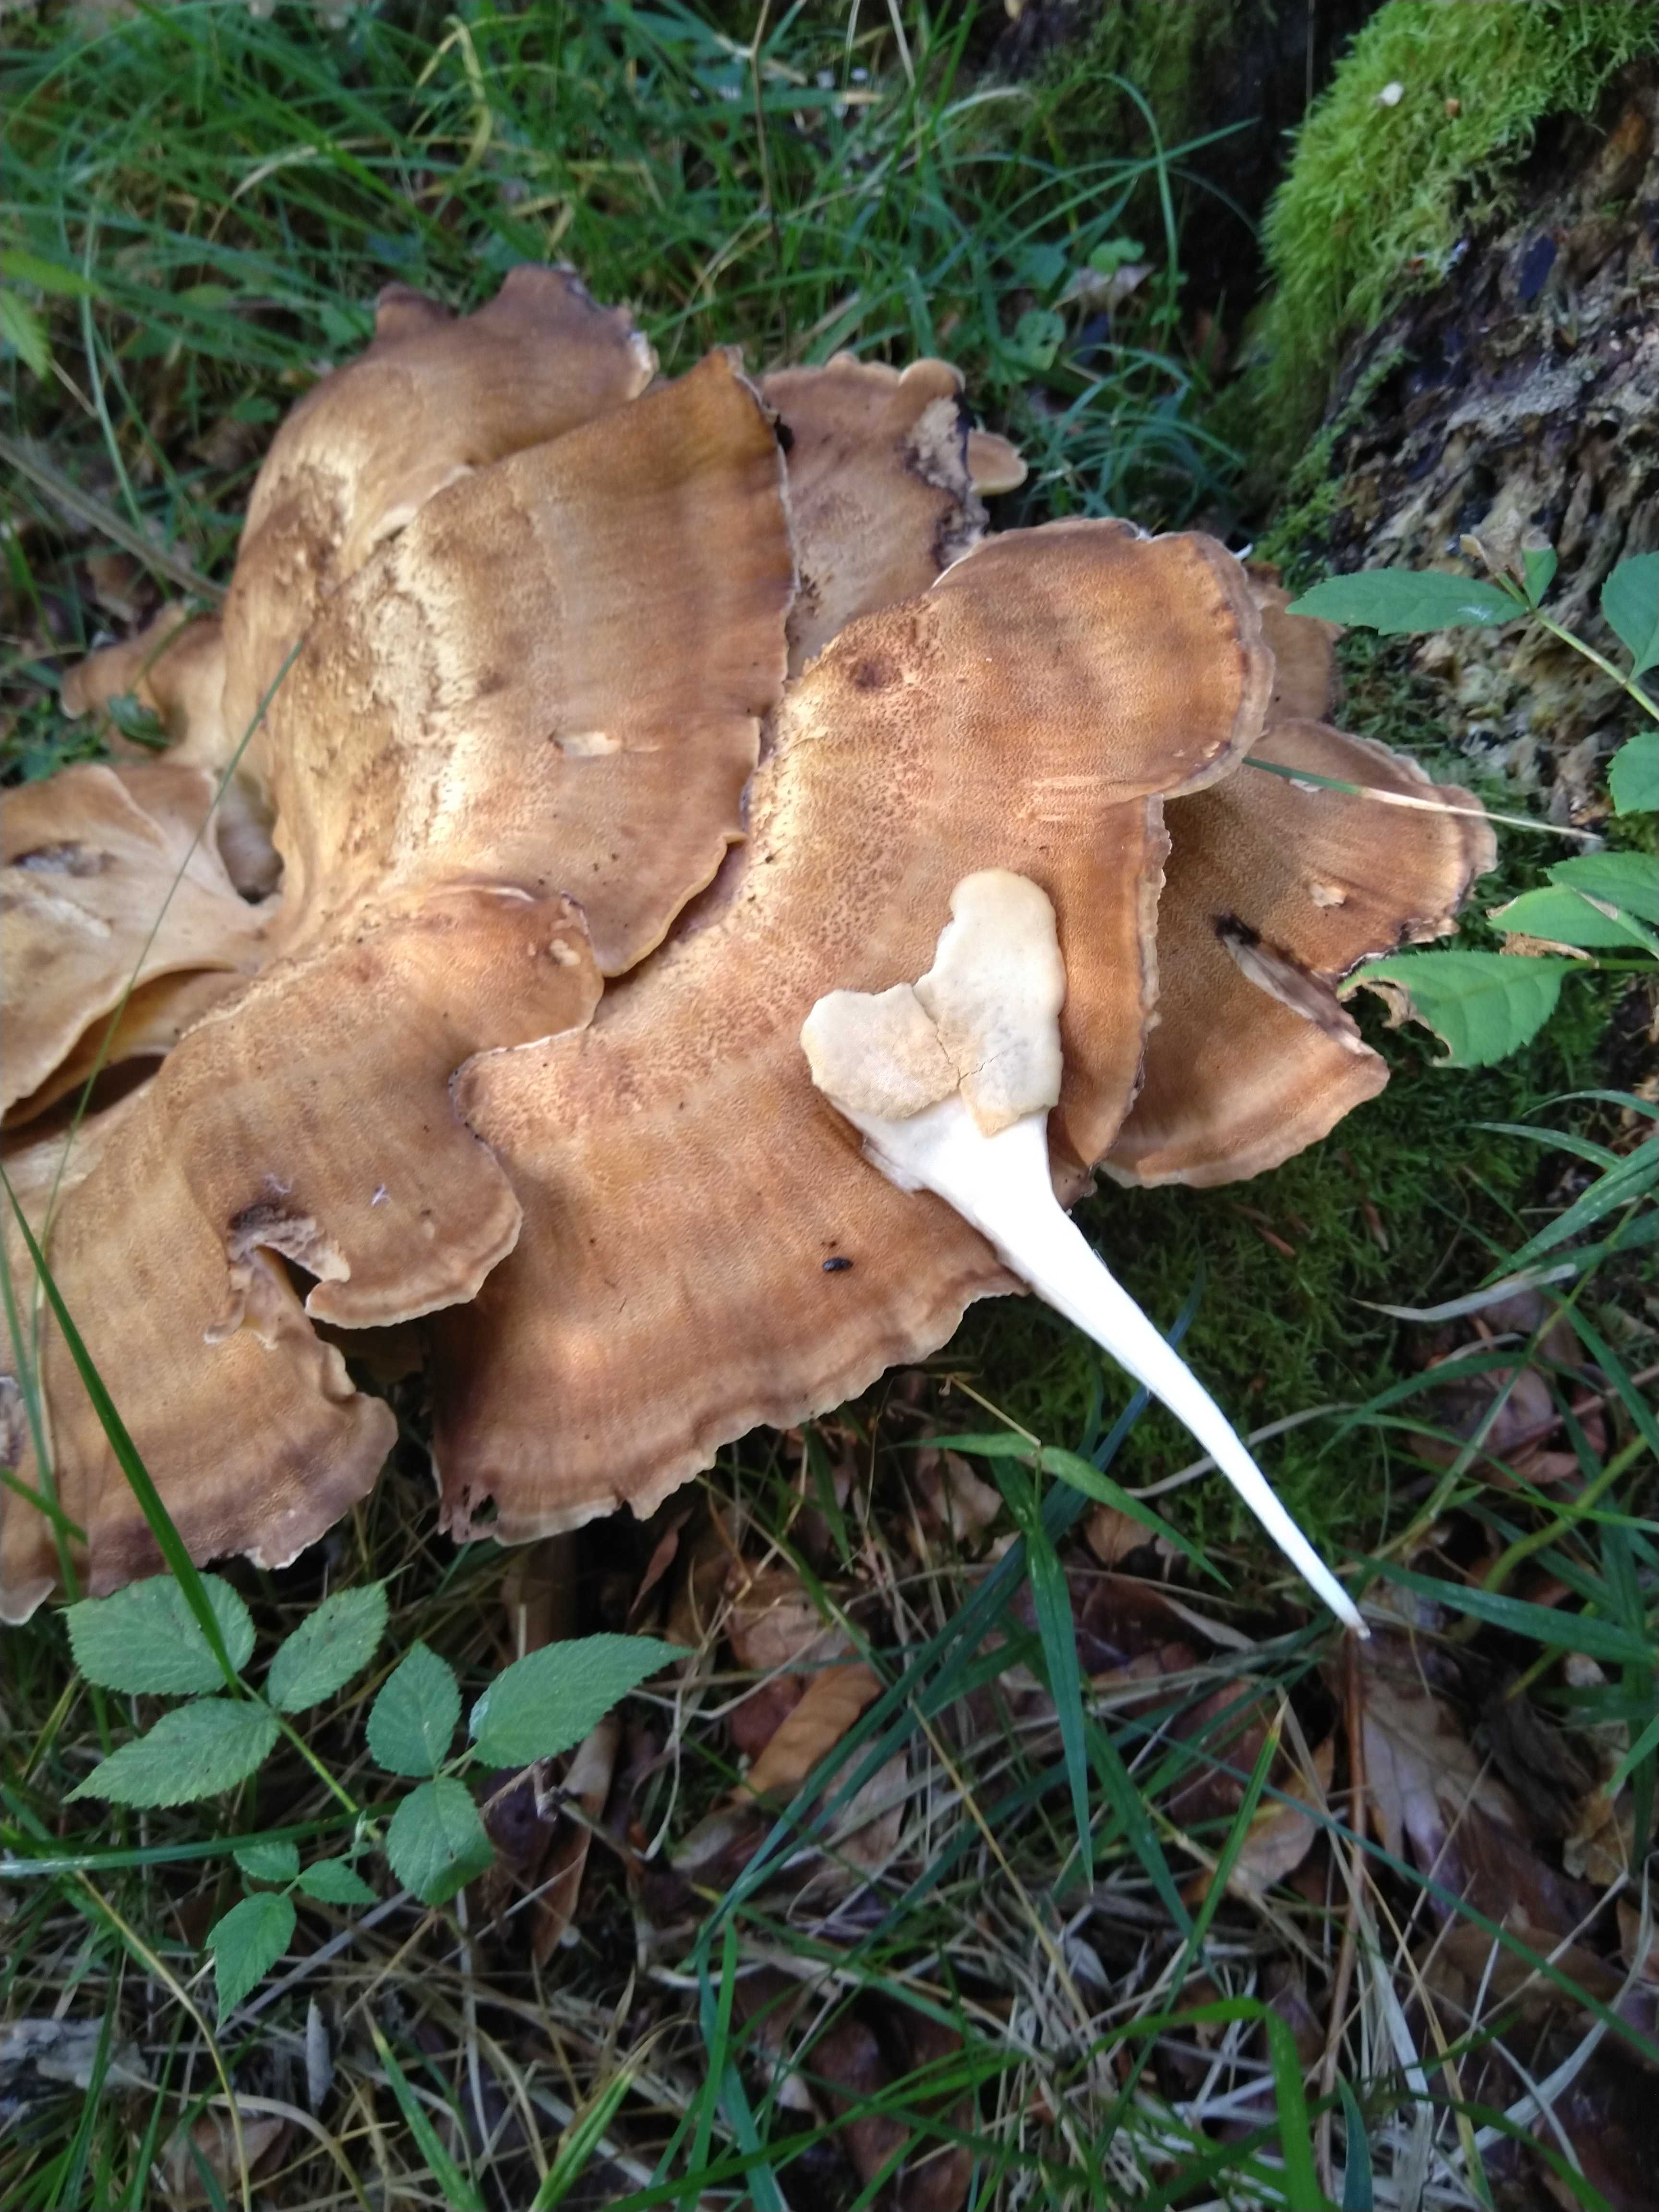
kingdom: Fungi
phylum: Basidiomycota
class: Agaricomycetes
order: Polyporales
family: Meripilaceae
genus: Meripilus
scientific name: Meripilus giganteus
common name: kæmpeporesvamp
